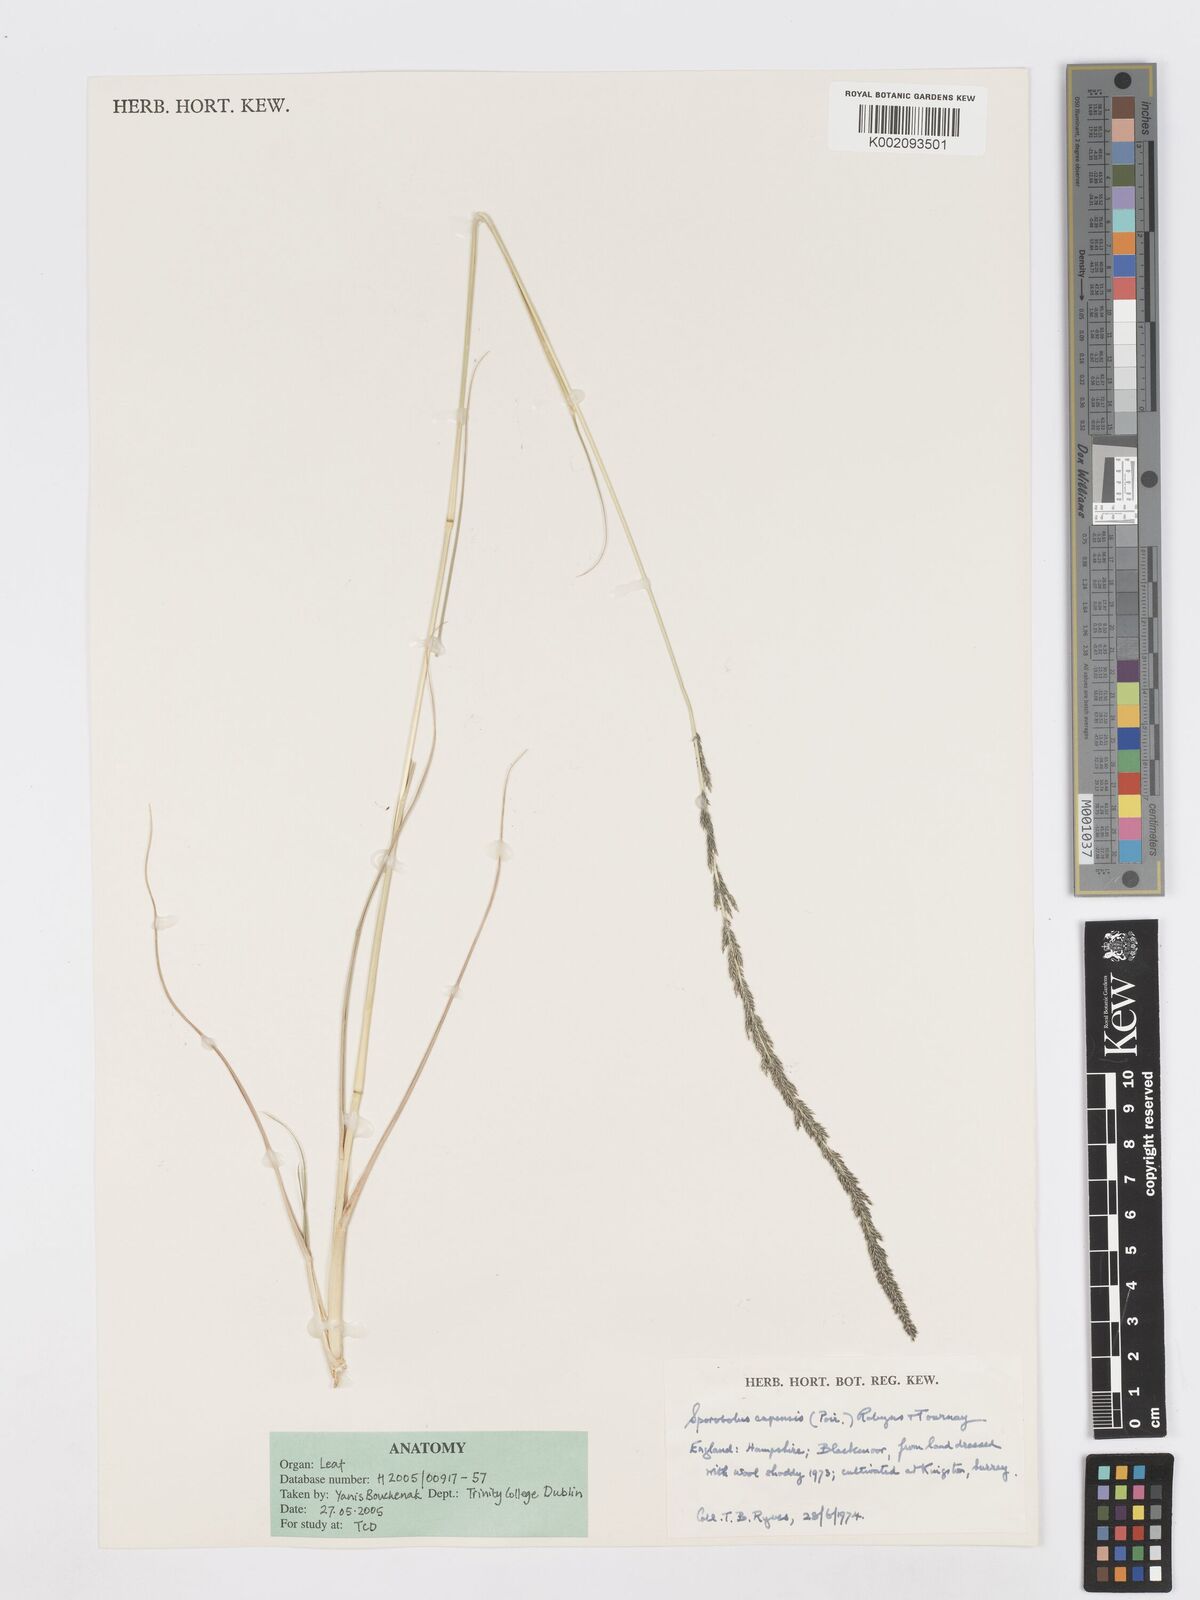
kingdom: Plantae
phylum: Tracheophyta
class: Liliopsida
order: Poales
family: Poaceae
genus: Sporobolus
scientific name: Sporobolus africanus
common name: African dropseed
